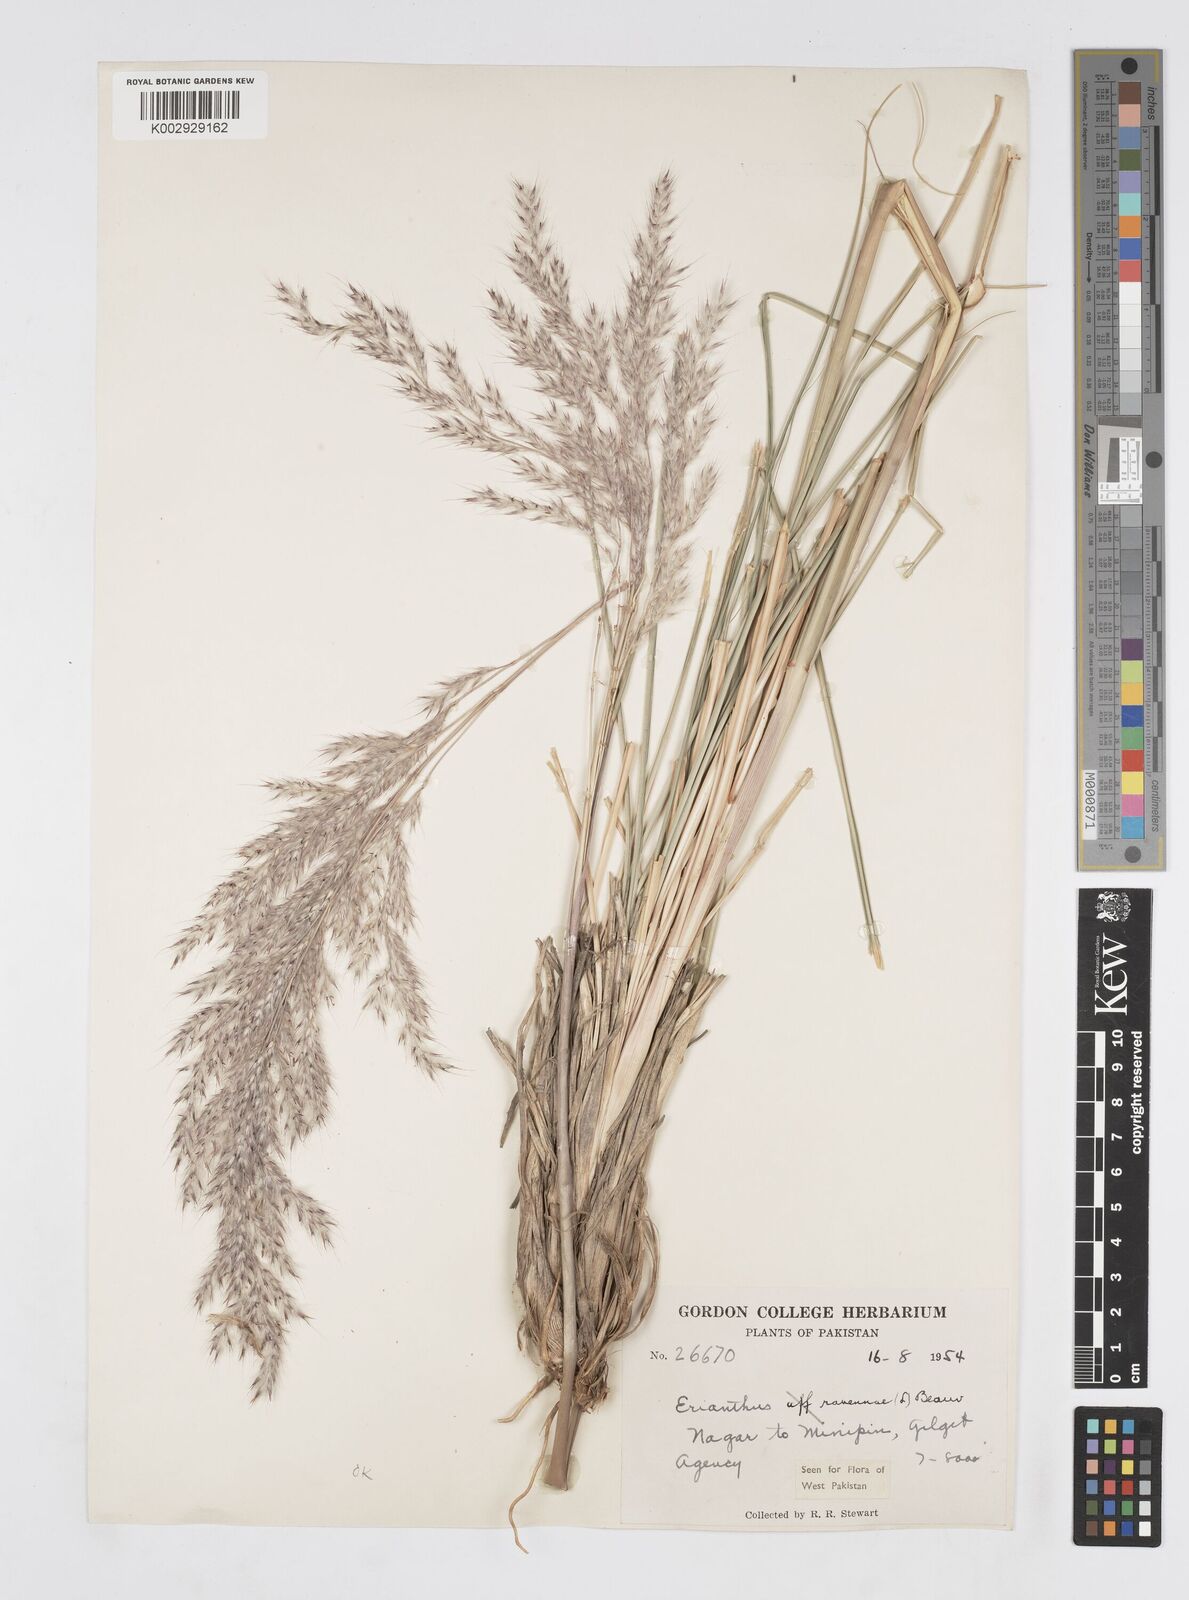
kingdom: Plantae
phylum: Tracheophyta
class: Liliopsida
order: Poales
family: Poaceae
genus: Tripidium
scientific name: Tripidium ravennae
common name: Ravenna grass
